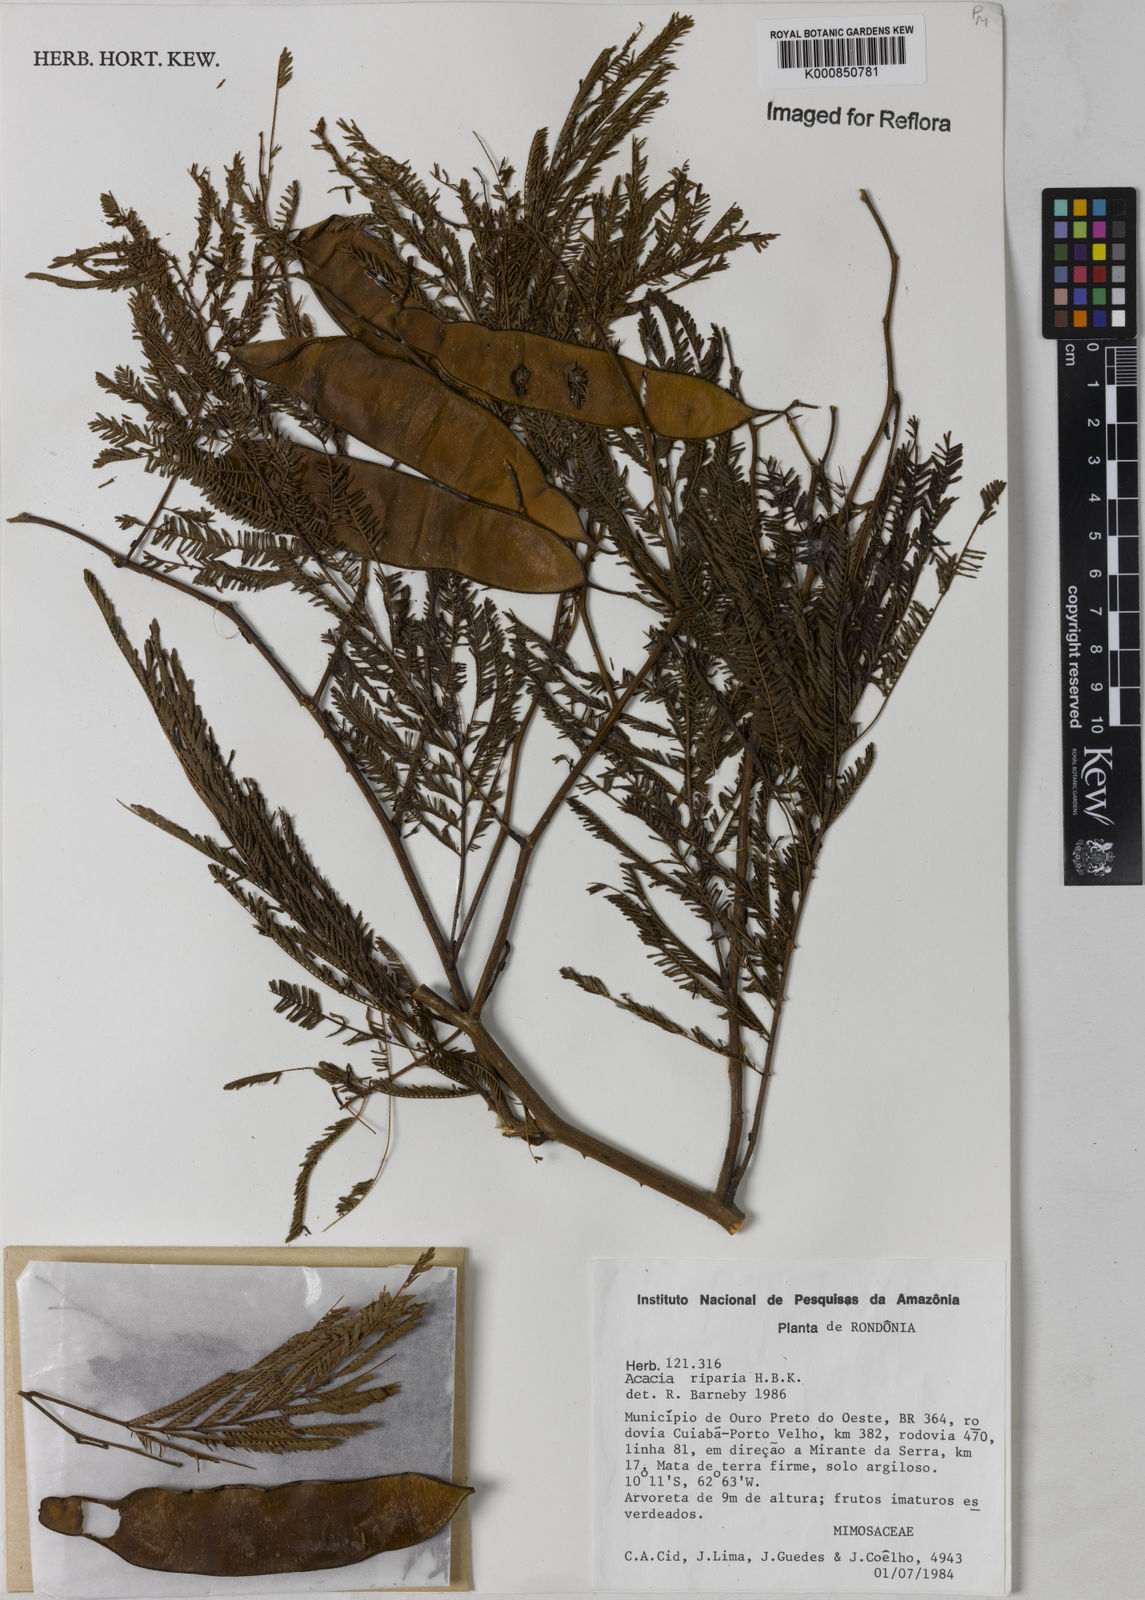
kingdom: Plantae
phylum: Tracheophyta
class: Magnoliopsida
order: Fabales
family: Fabaceae
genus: Senegalia
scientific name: Senegalia riparia
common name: Catch-and-keep
